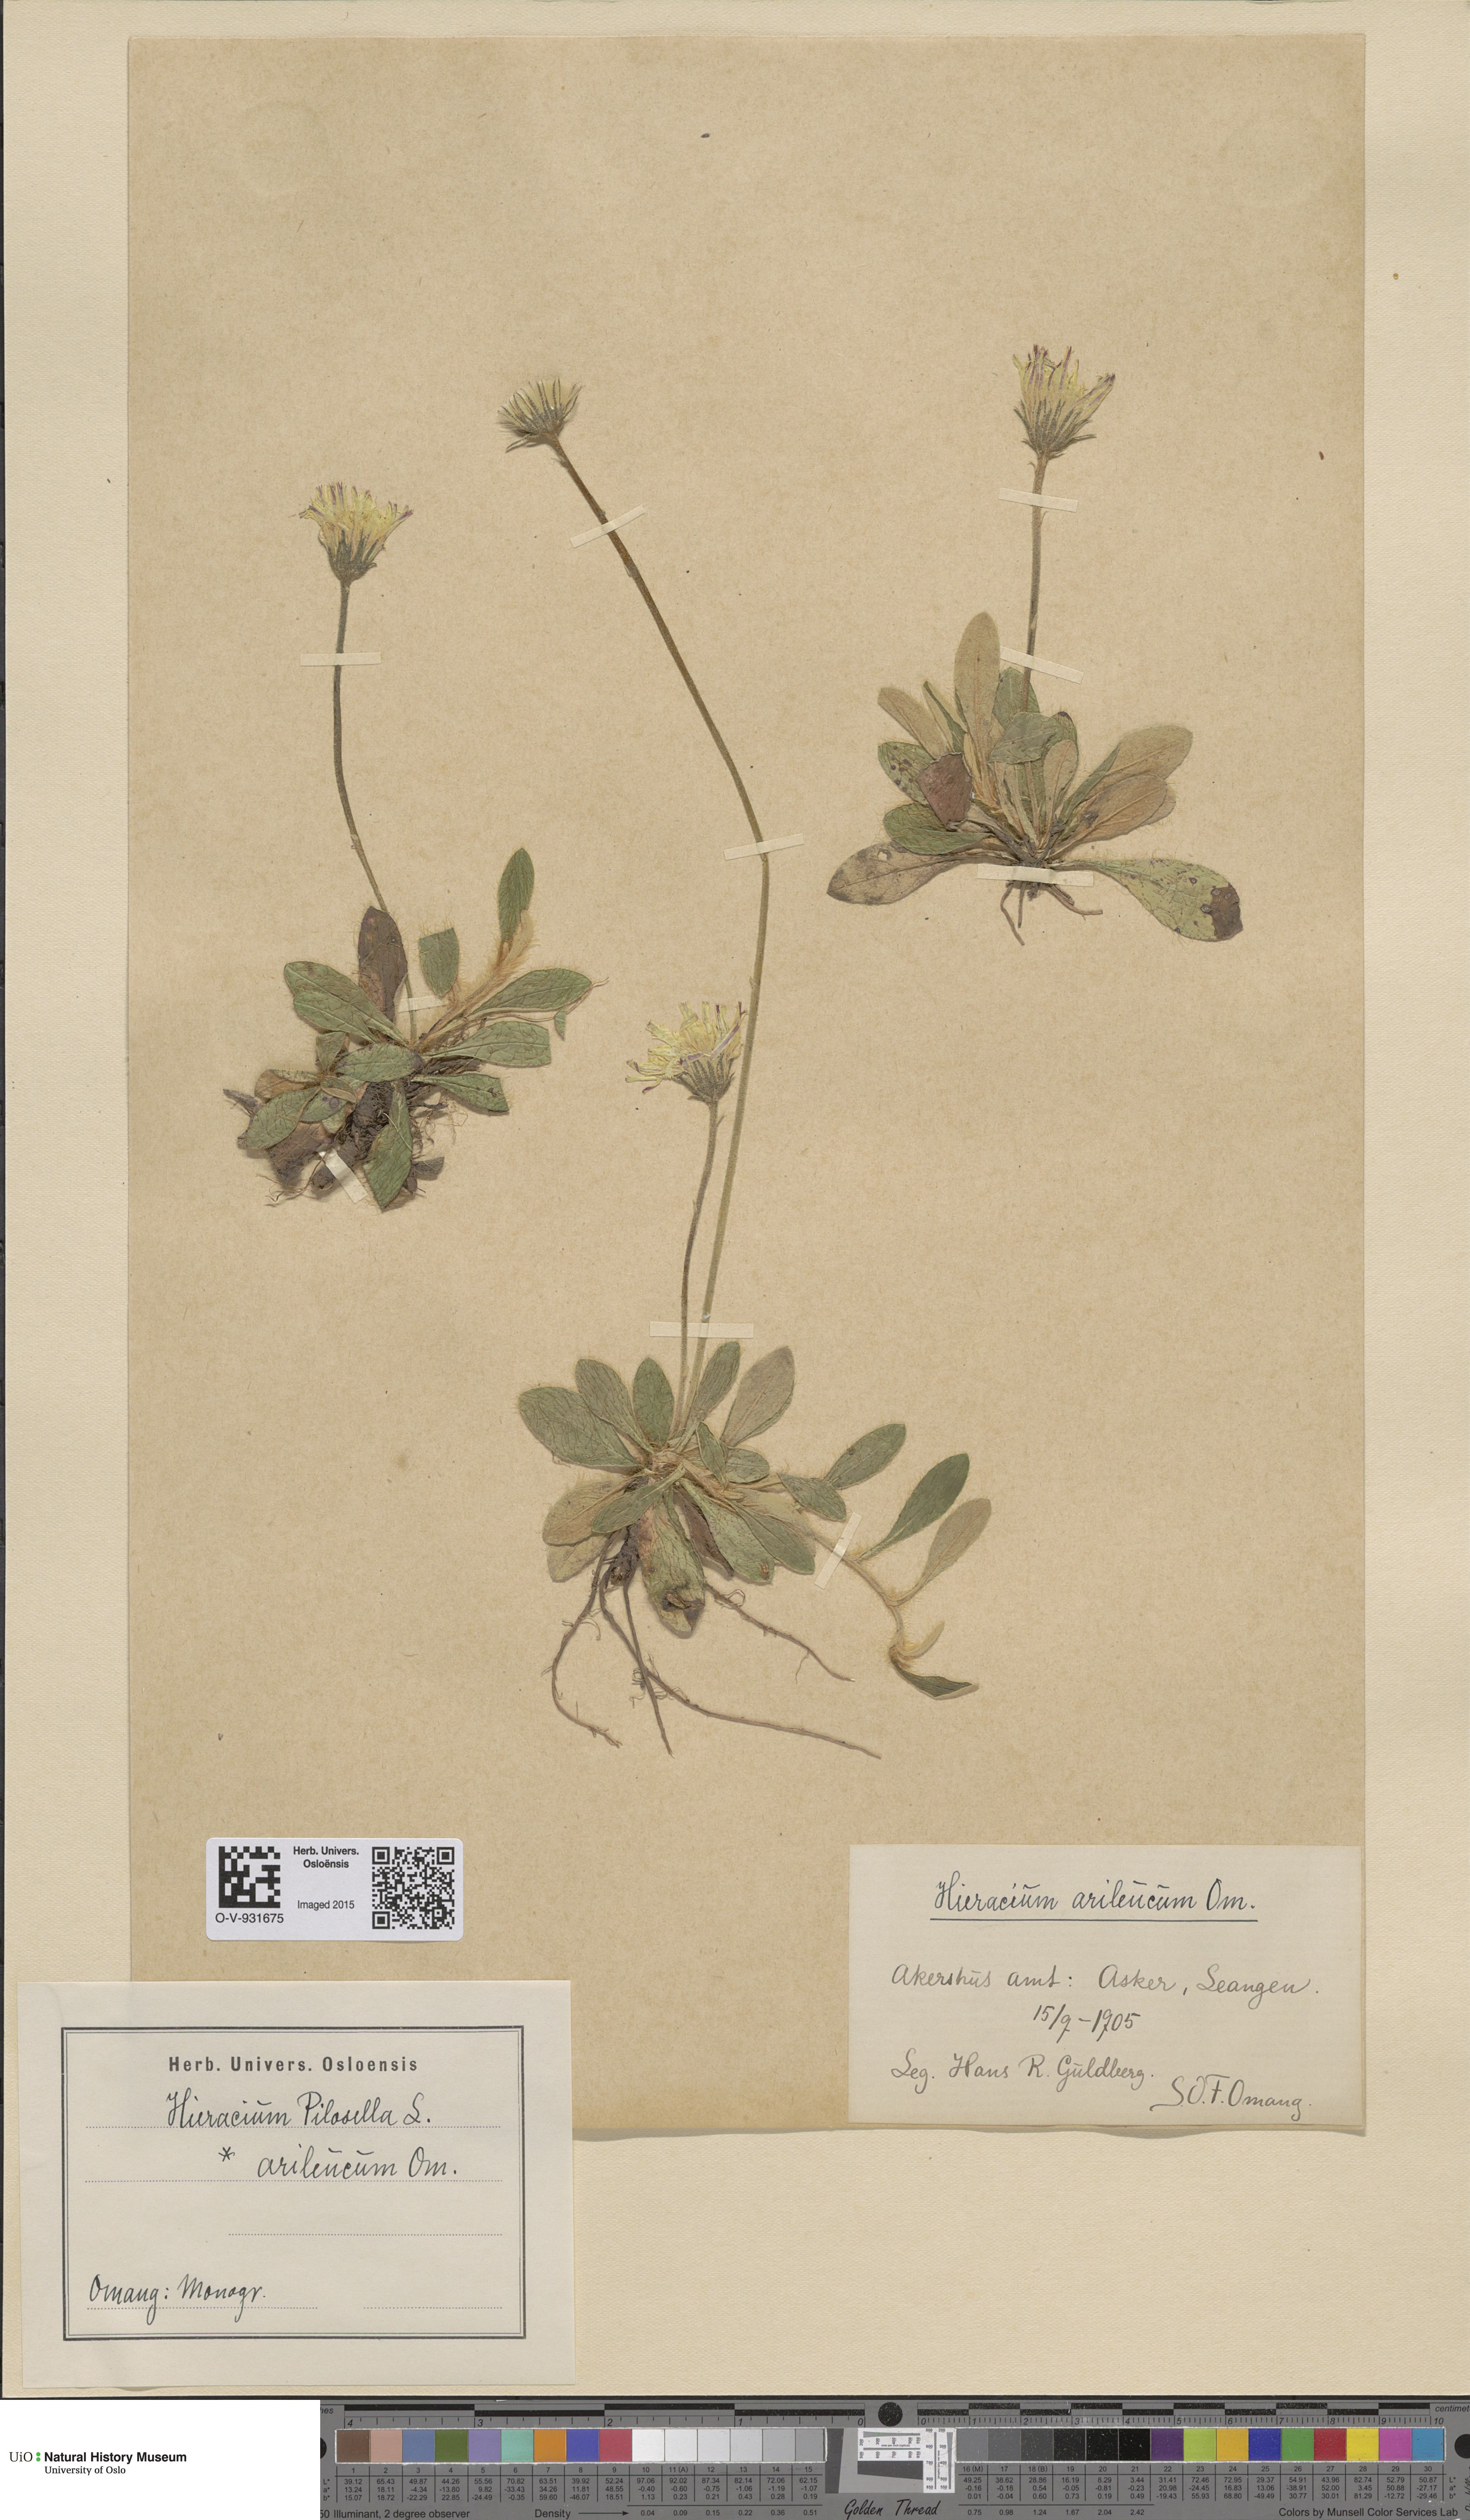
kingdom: Plantae
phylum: Tracheophyta
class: Magnoliopsida
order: Asterales
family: Asteraceae
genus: Pilosella
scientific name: Pilosella officinarum
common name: Mouse-ear hawkweed
